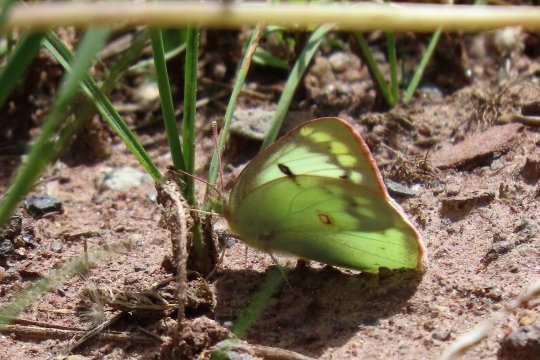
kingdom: Animalia
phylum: Arthropoda
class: Insecta
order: Lepidoptera
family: Pieridae
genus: Colias
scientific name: Colias philodice
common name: Clouded Sulphur
